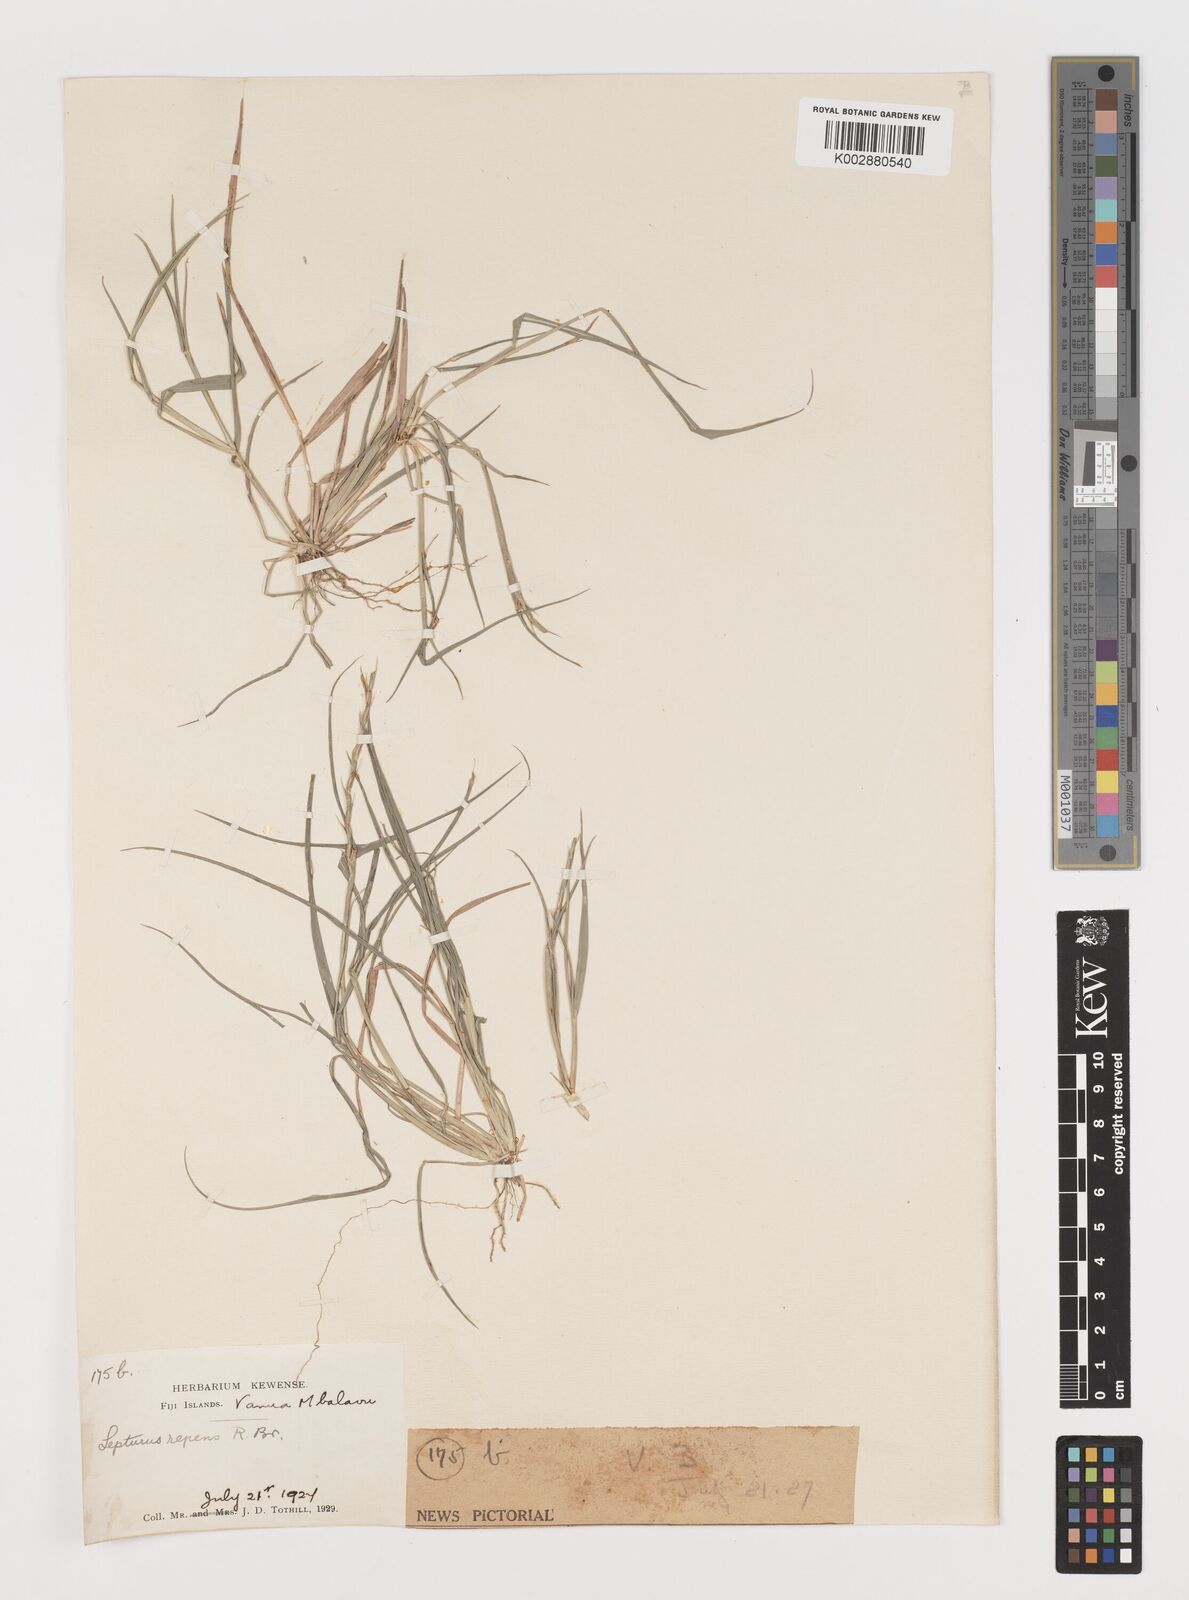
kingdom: Plantae
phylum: Tracheophyta
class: Liliopsida
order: Poales
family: Poaceae
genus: Lepturus
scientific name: Lepturus repens
